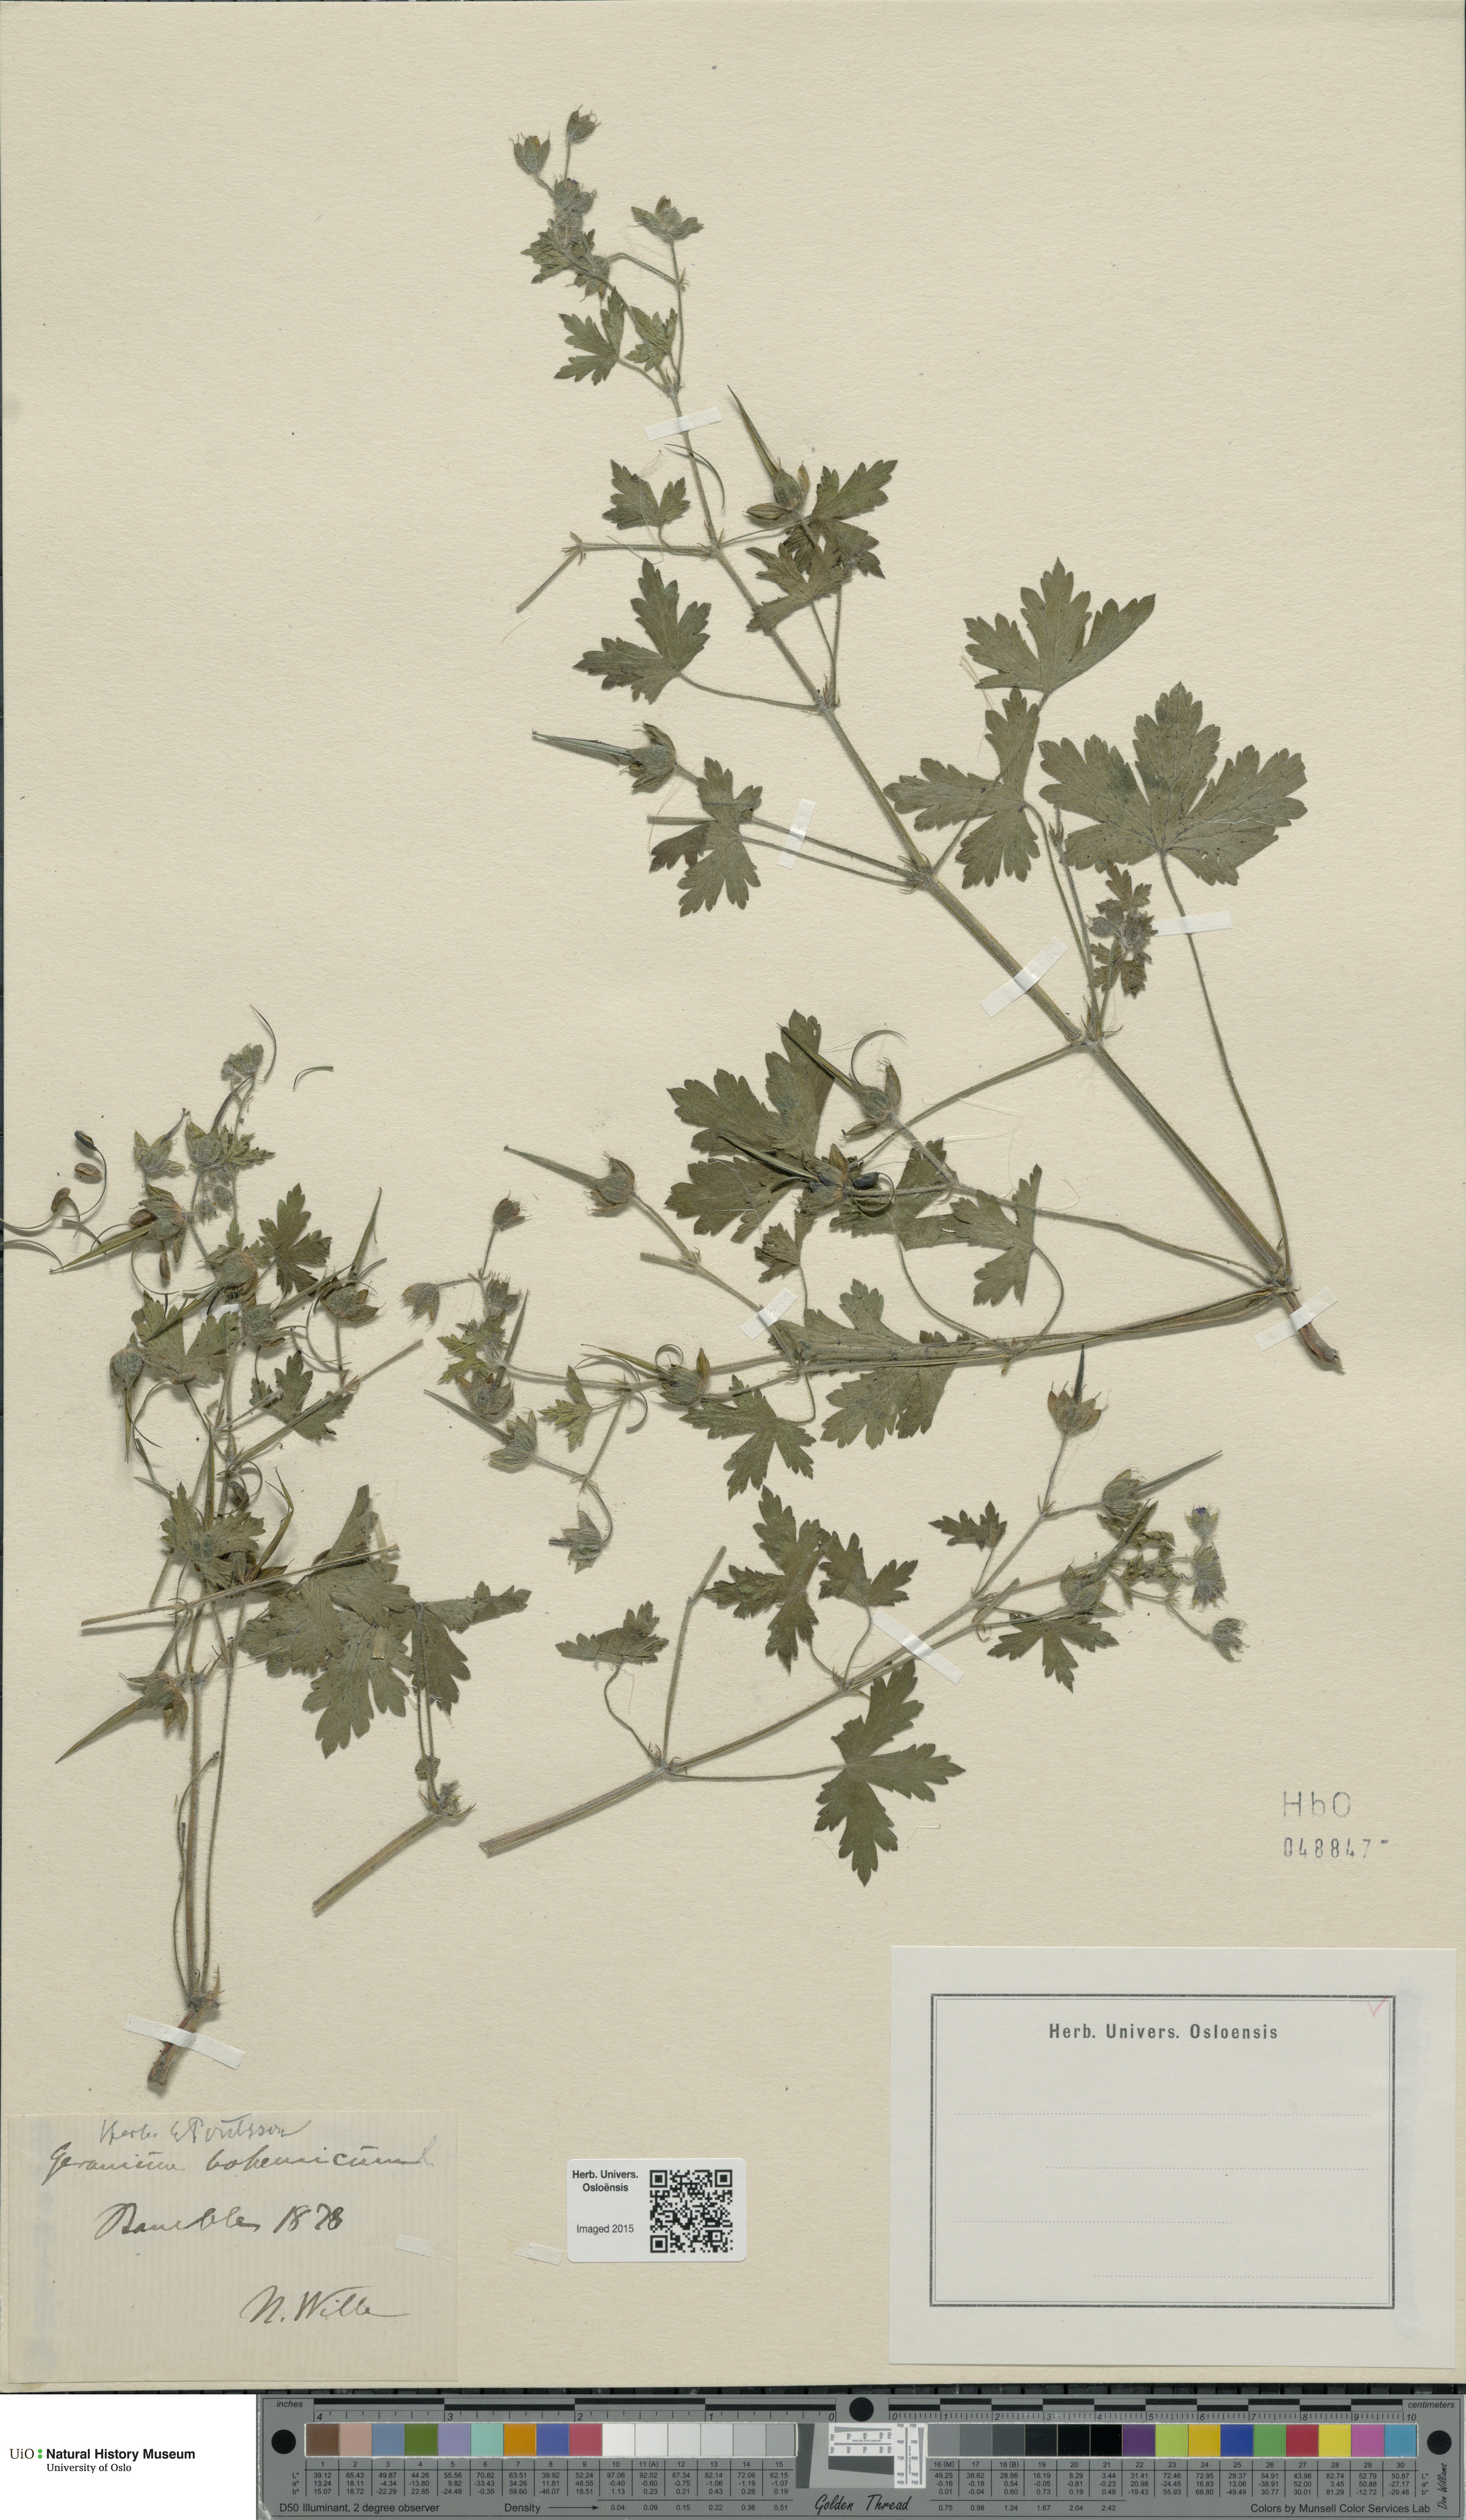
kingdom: Plantae
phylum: Tracheophyta
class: Magnoliopsida
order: Geraniales
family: Geraniaceae
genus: Geranium
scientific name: Geranium bohemicum
